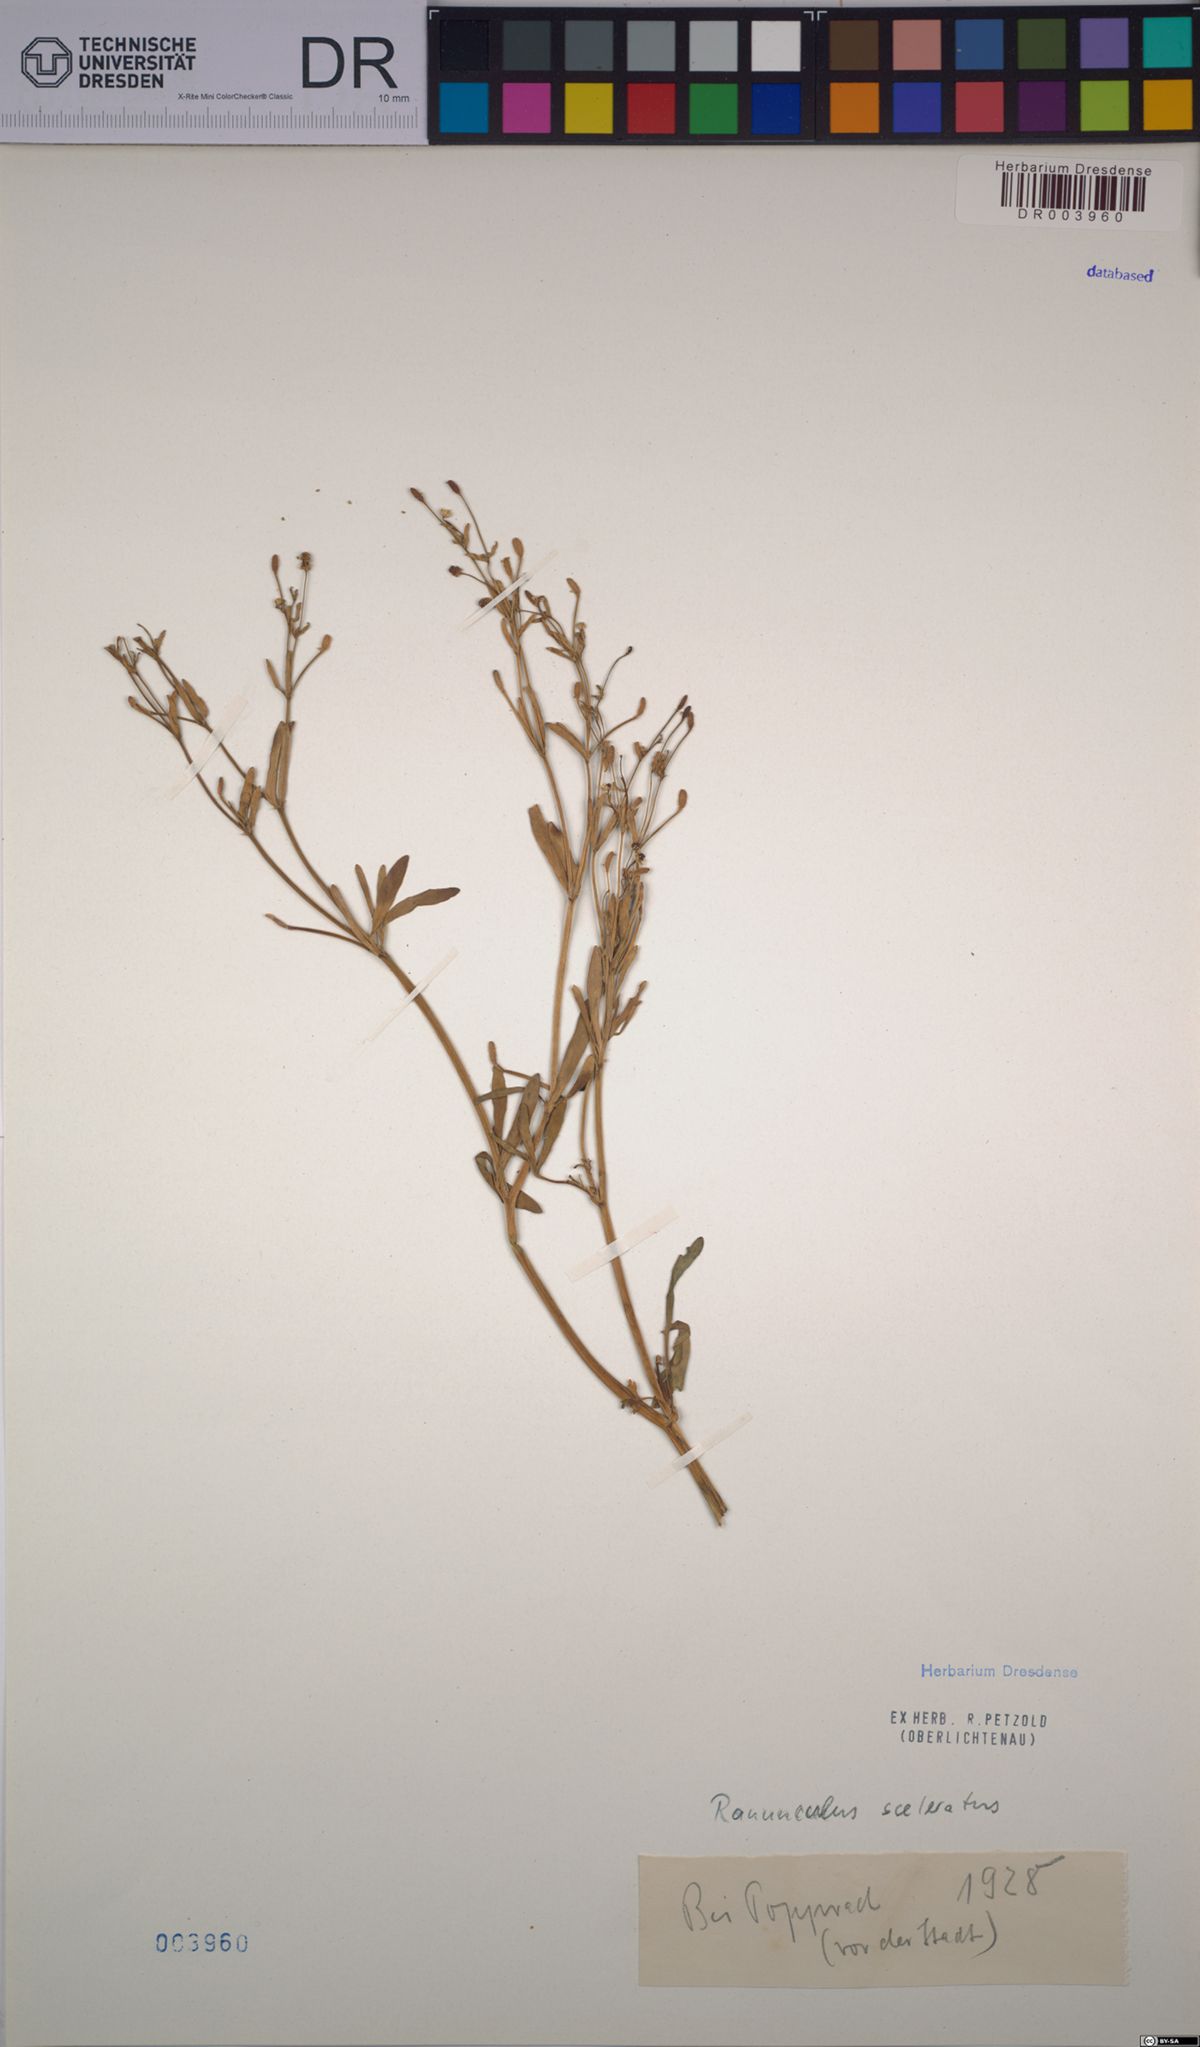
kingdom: Plantae
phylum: Tracheophyta
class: Magnoliopsida
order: Ranunculales
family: Ranunculaceae
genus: Ranunculus
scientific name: Ranunculus sceleratus
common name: Celery-leaved buttercup
